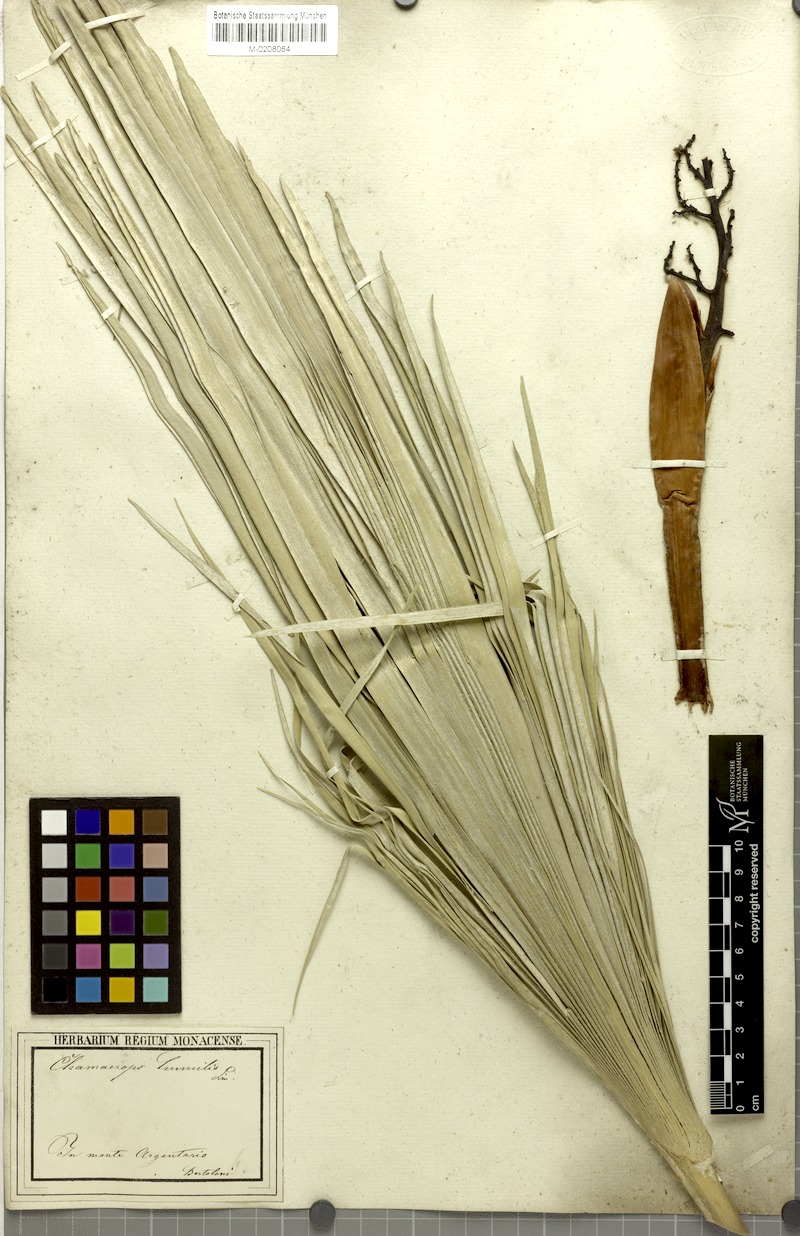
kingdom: Plantae
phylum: Tracheophyta
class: Liliopsida
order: Arecales
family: Arecaceae
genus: Chamaerops
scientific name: Chamaerops humilis
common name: Dwarf fan palm
